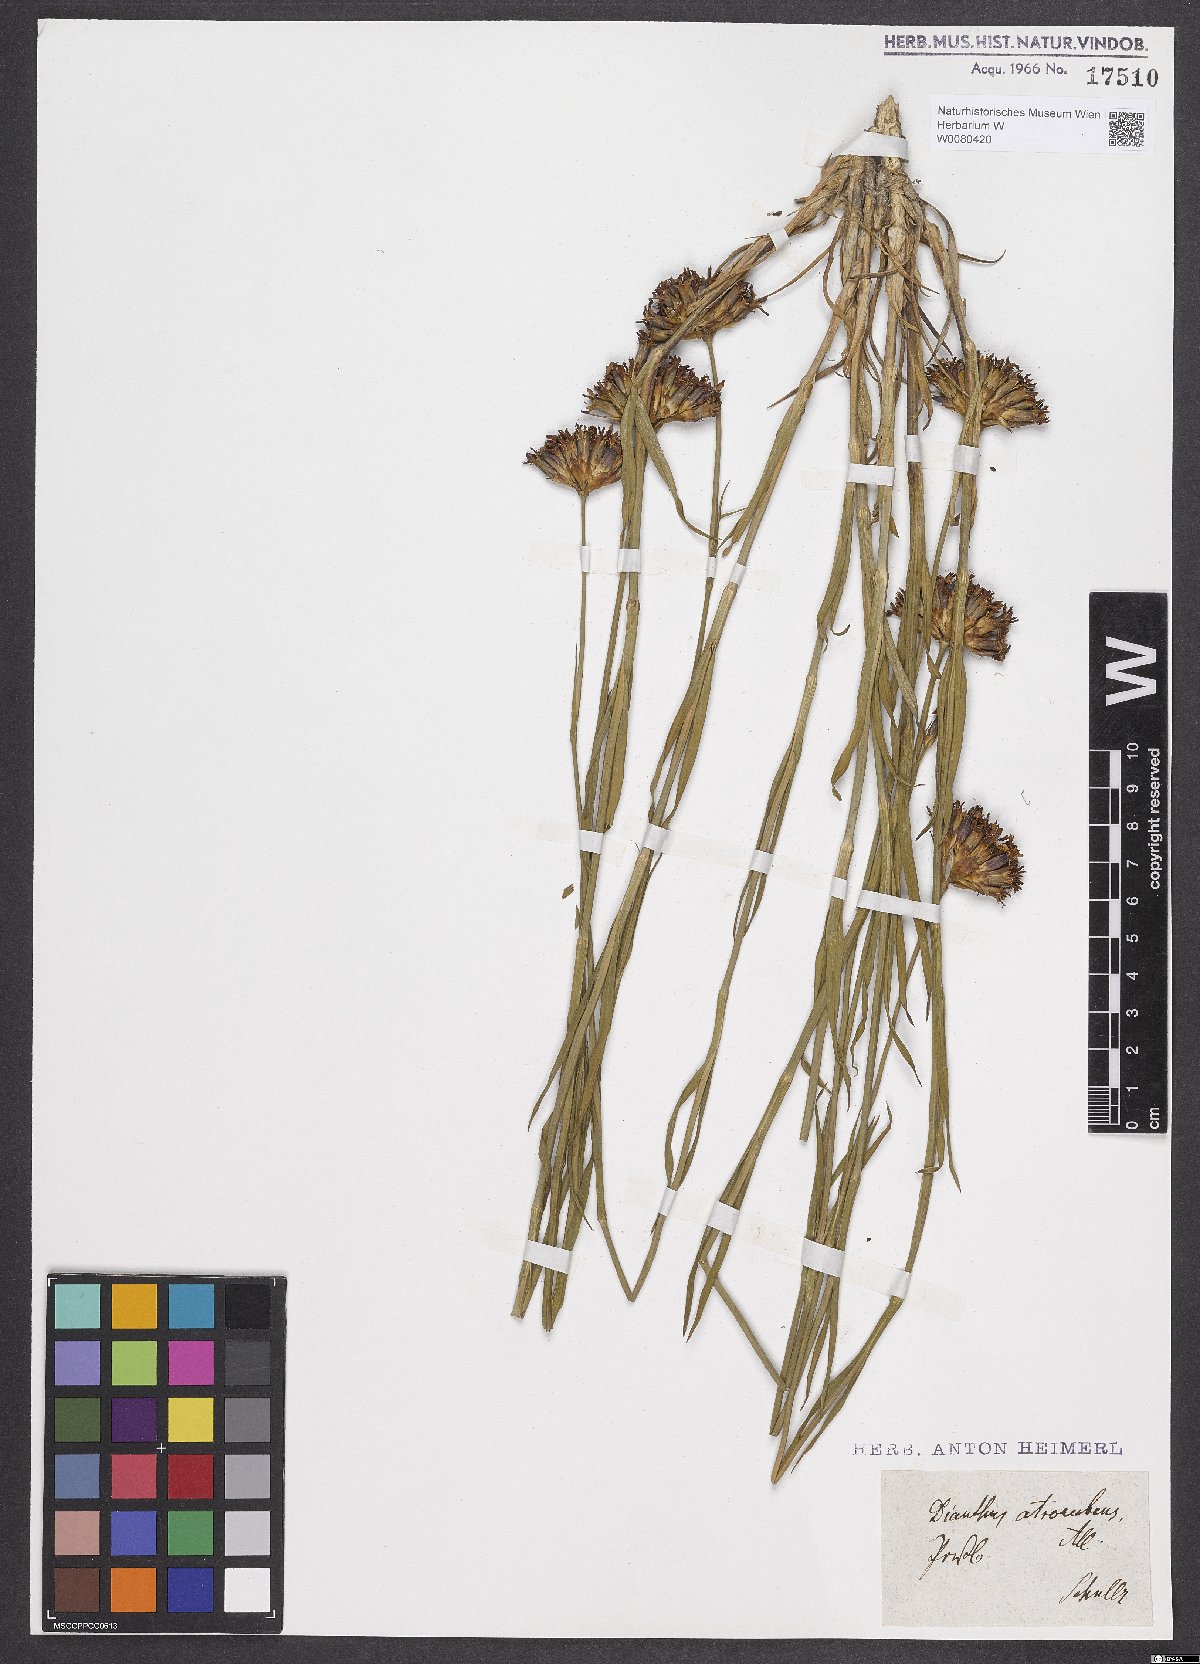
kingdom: Plantae
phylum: Tracheophyta
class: Magnoliopsida
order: Caryophyllales
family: Caryophyllaceae
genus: Dianthus
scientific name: Dianthus carthusianorum
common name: Carthusian pink
